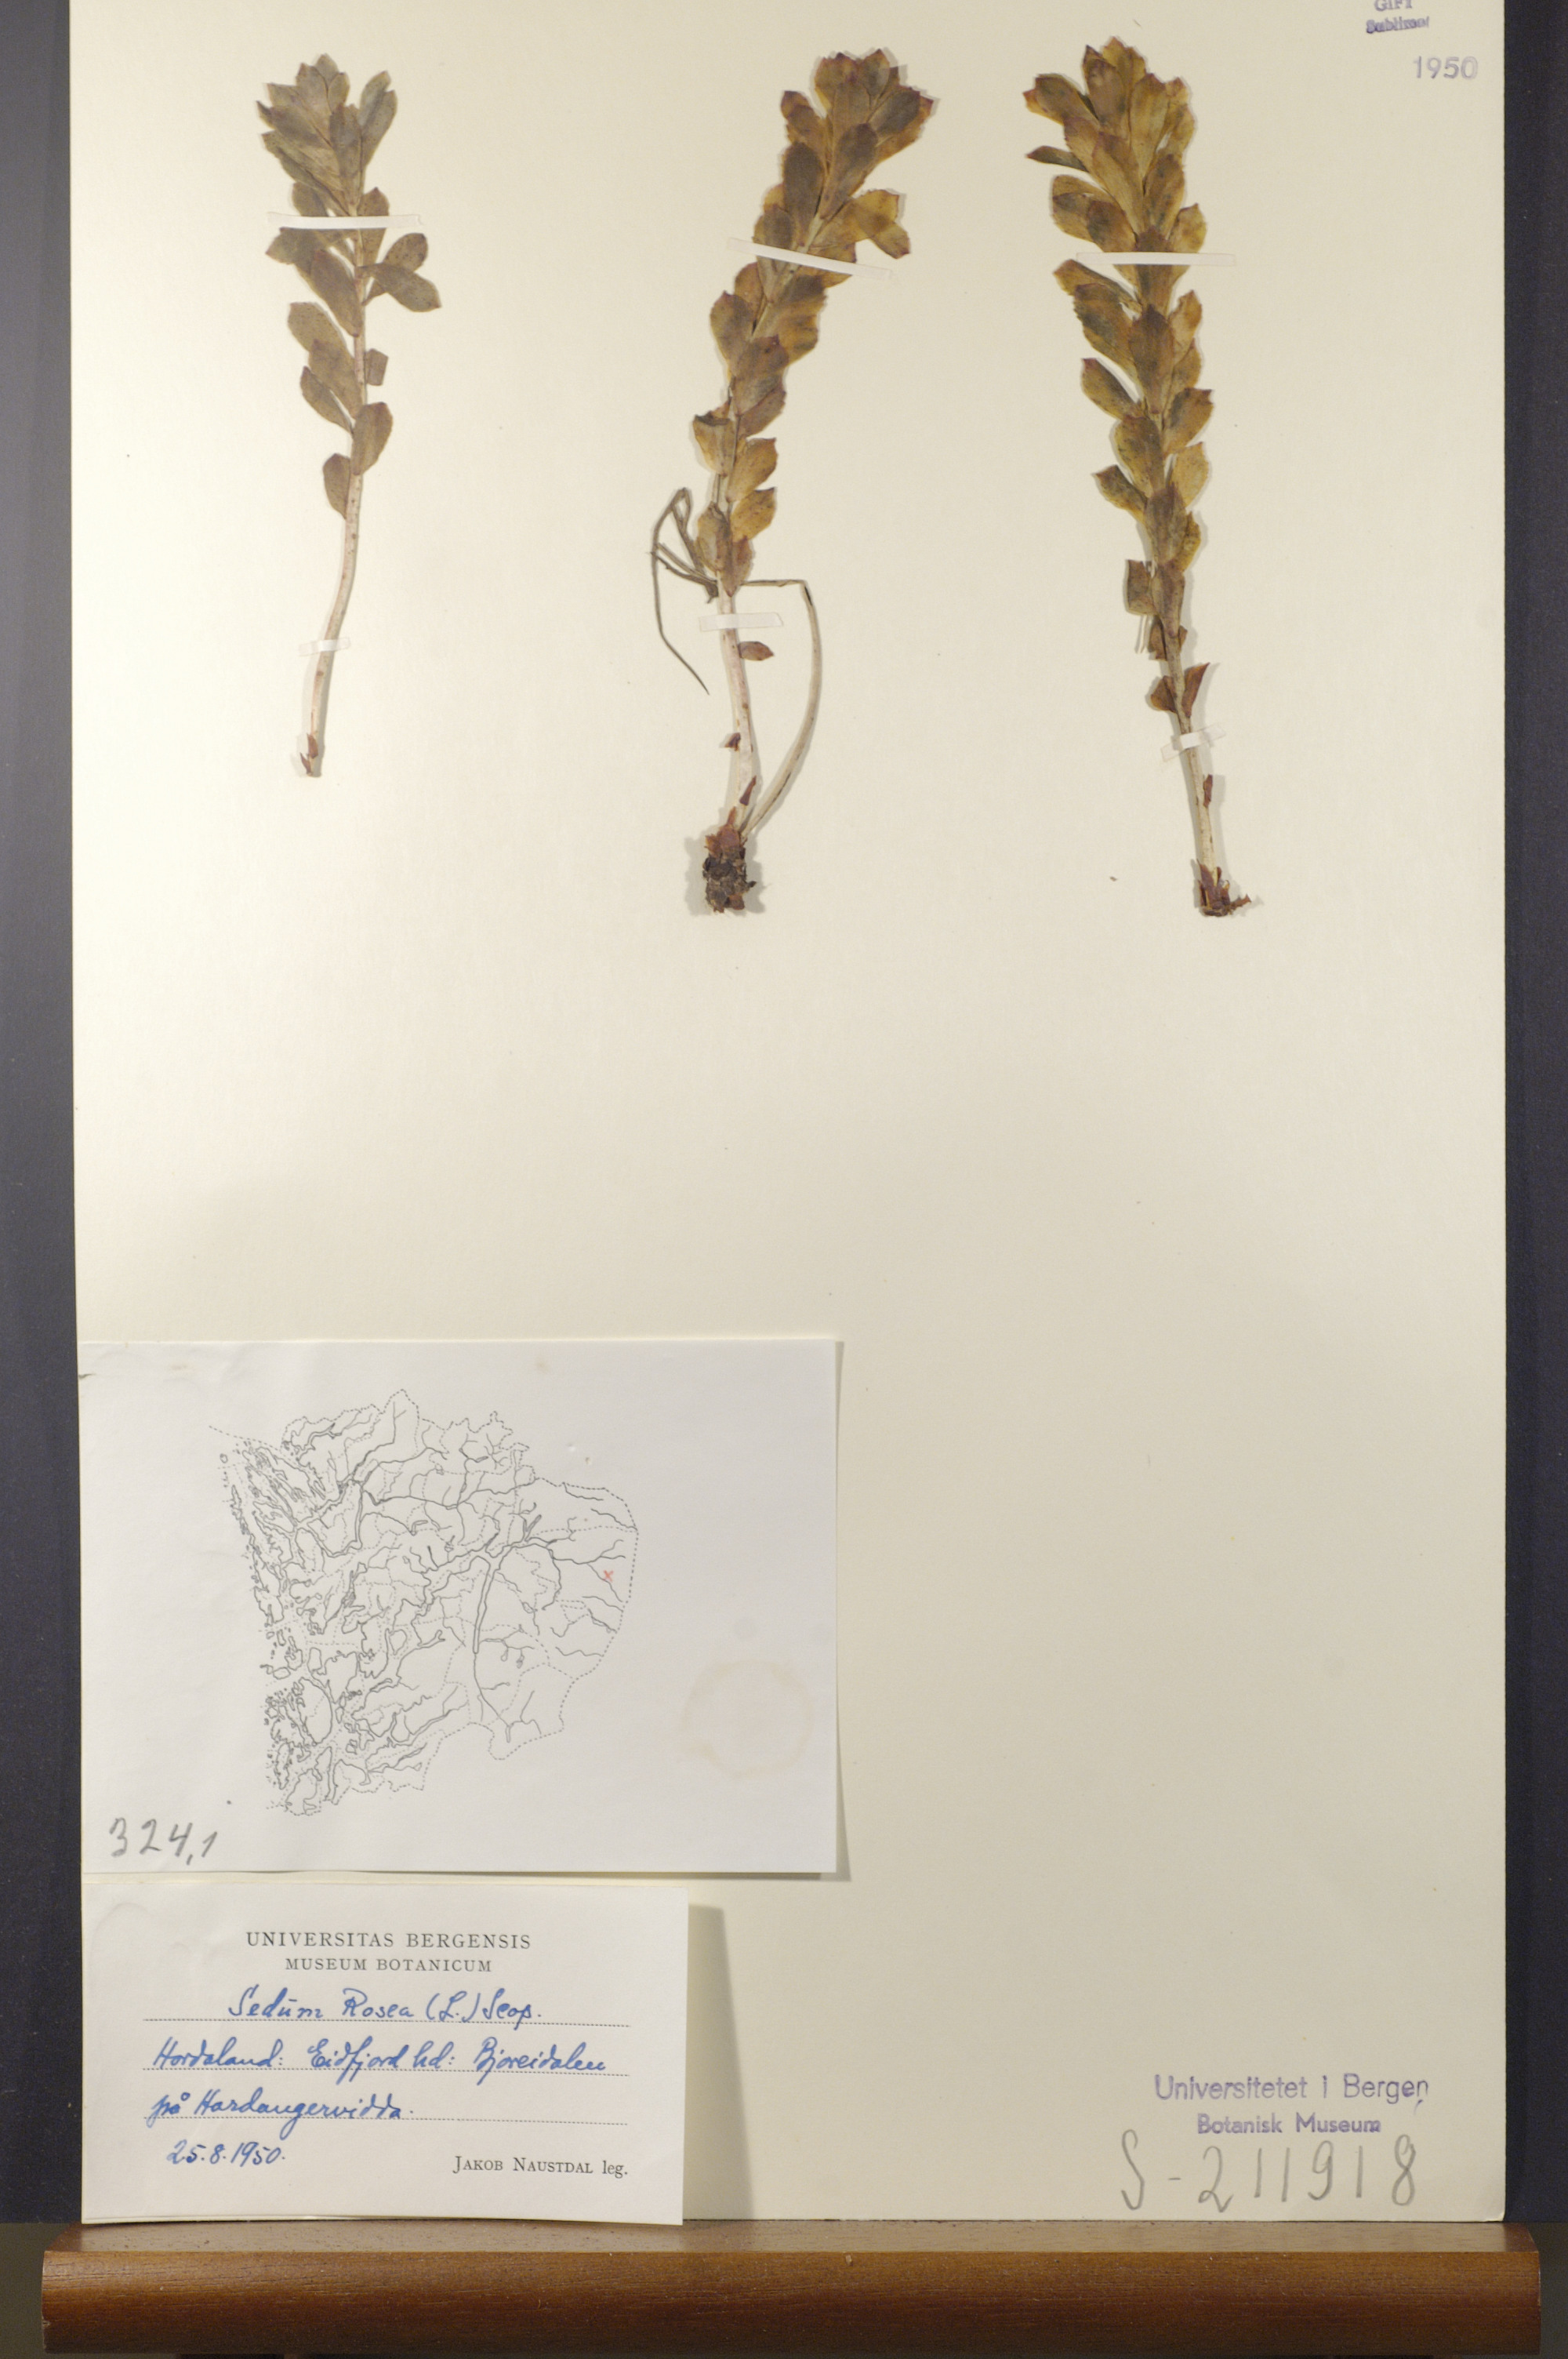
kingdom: Plantae
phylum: Tracheophyta
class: Magnoliopsida
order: Saxifragales
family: Crassulaceae
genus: Rhodiola
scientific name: Rhodiola rosea
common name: Roseroot
